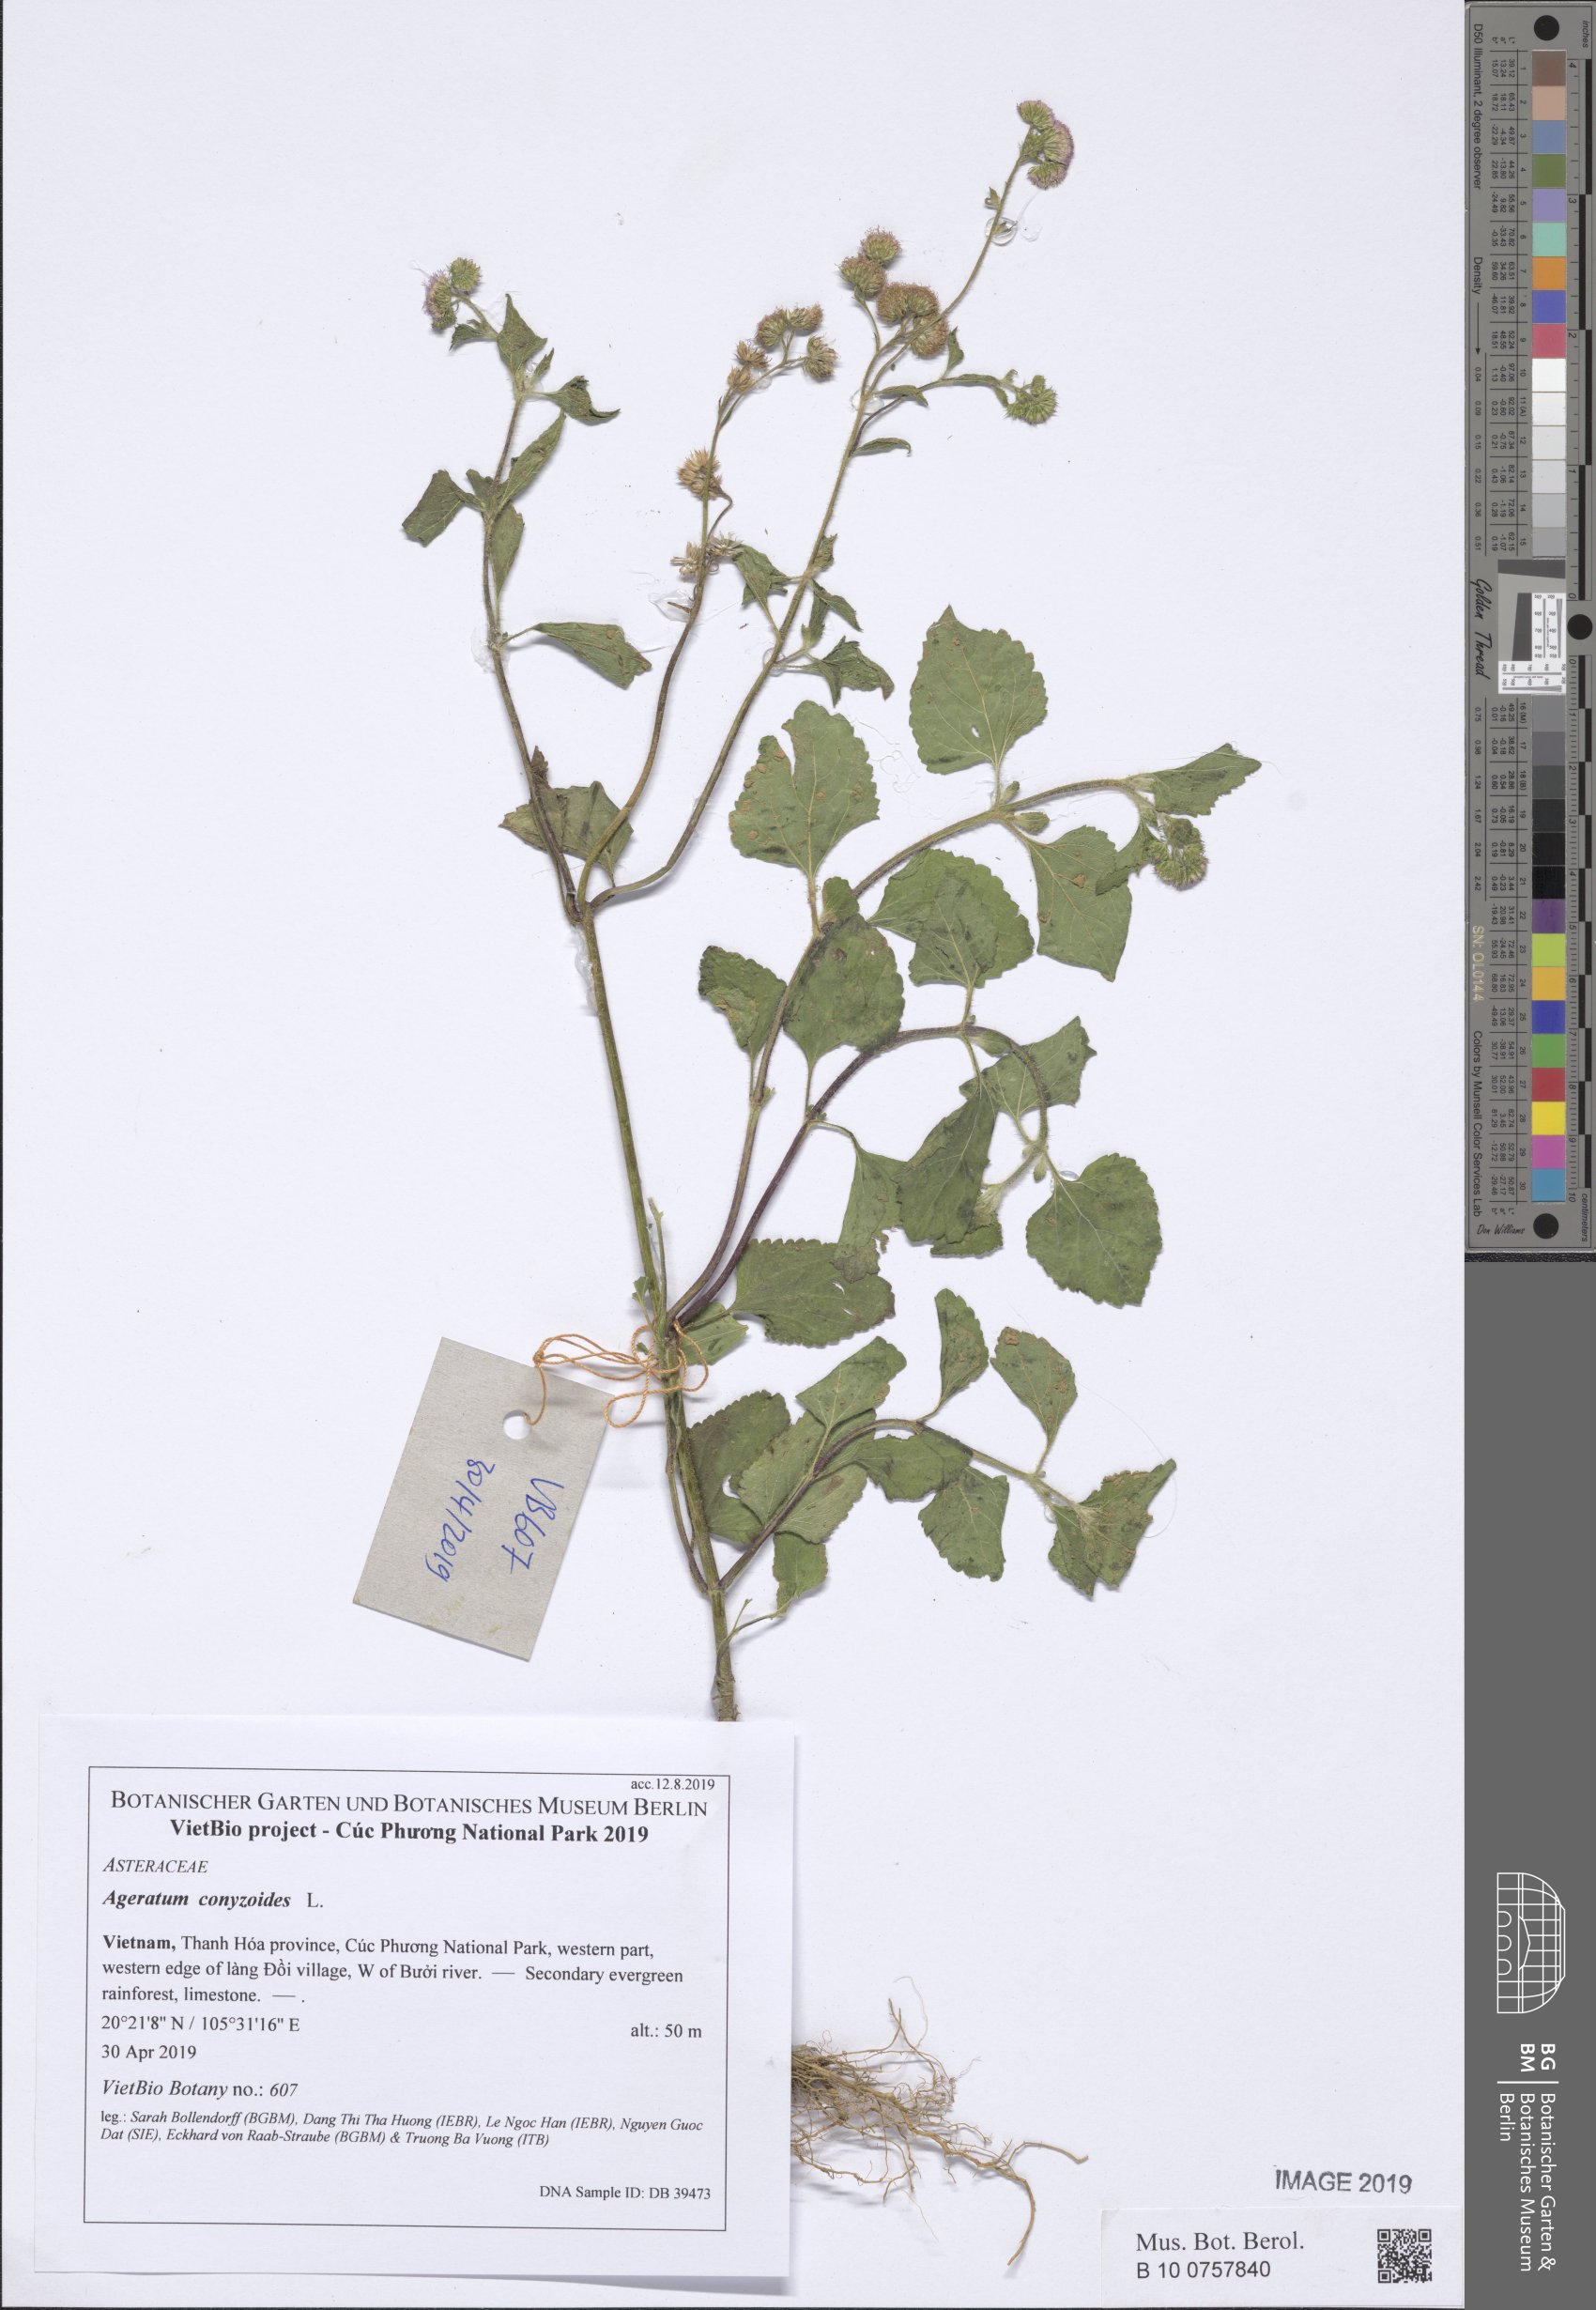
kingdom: Plantae
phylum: Tracheophyta
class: Magnoliopsida
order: Asterales
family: Asteraceae
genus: Ageratum
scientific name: Ageratum conyzoides
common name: Tropical whiteweed
